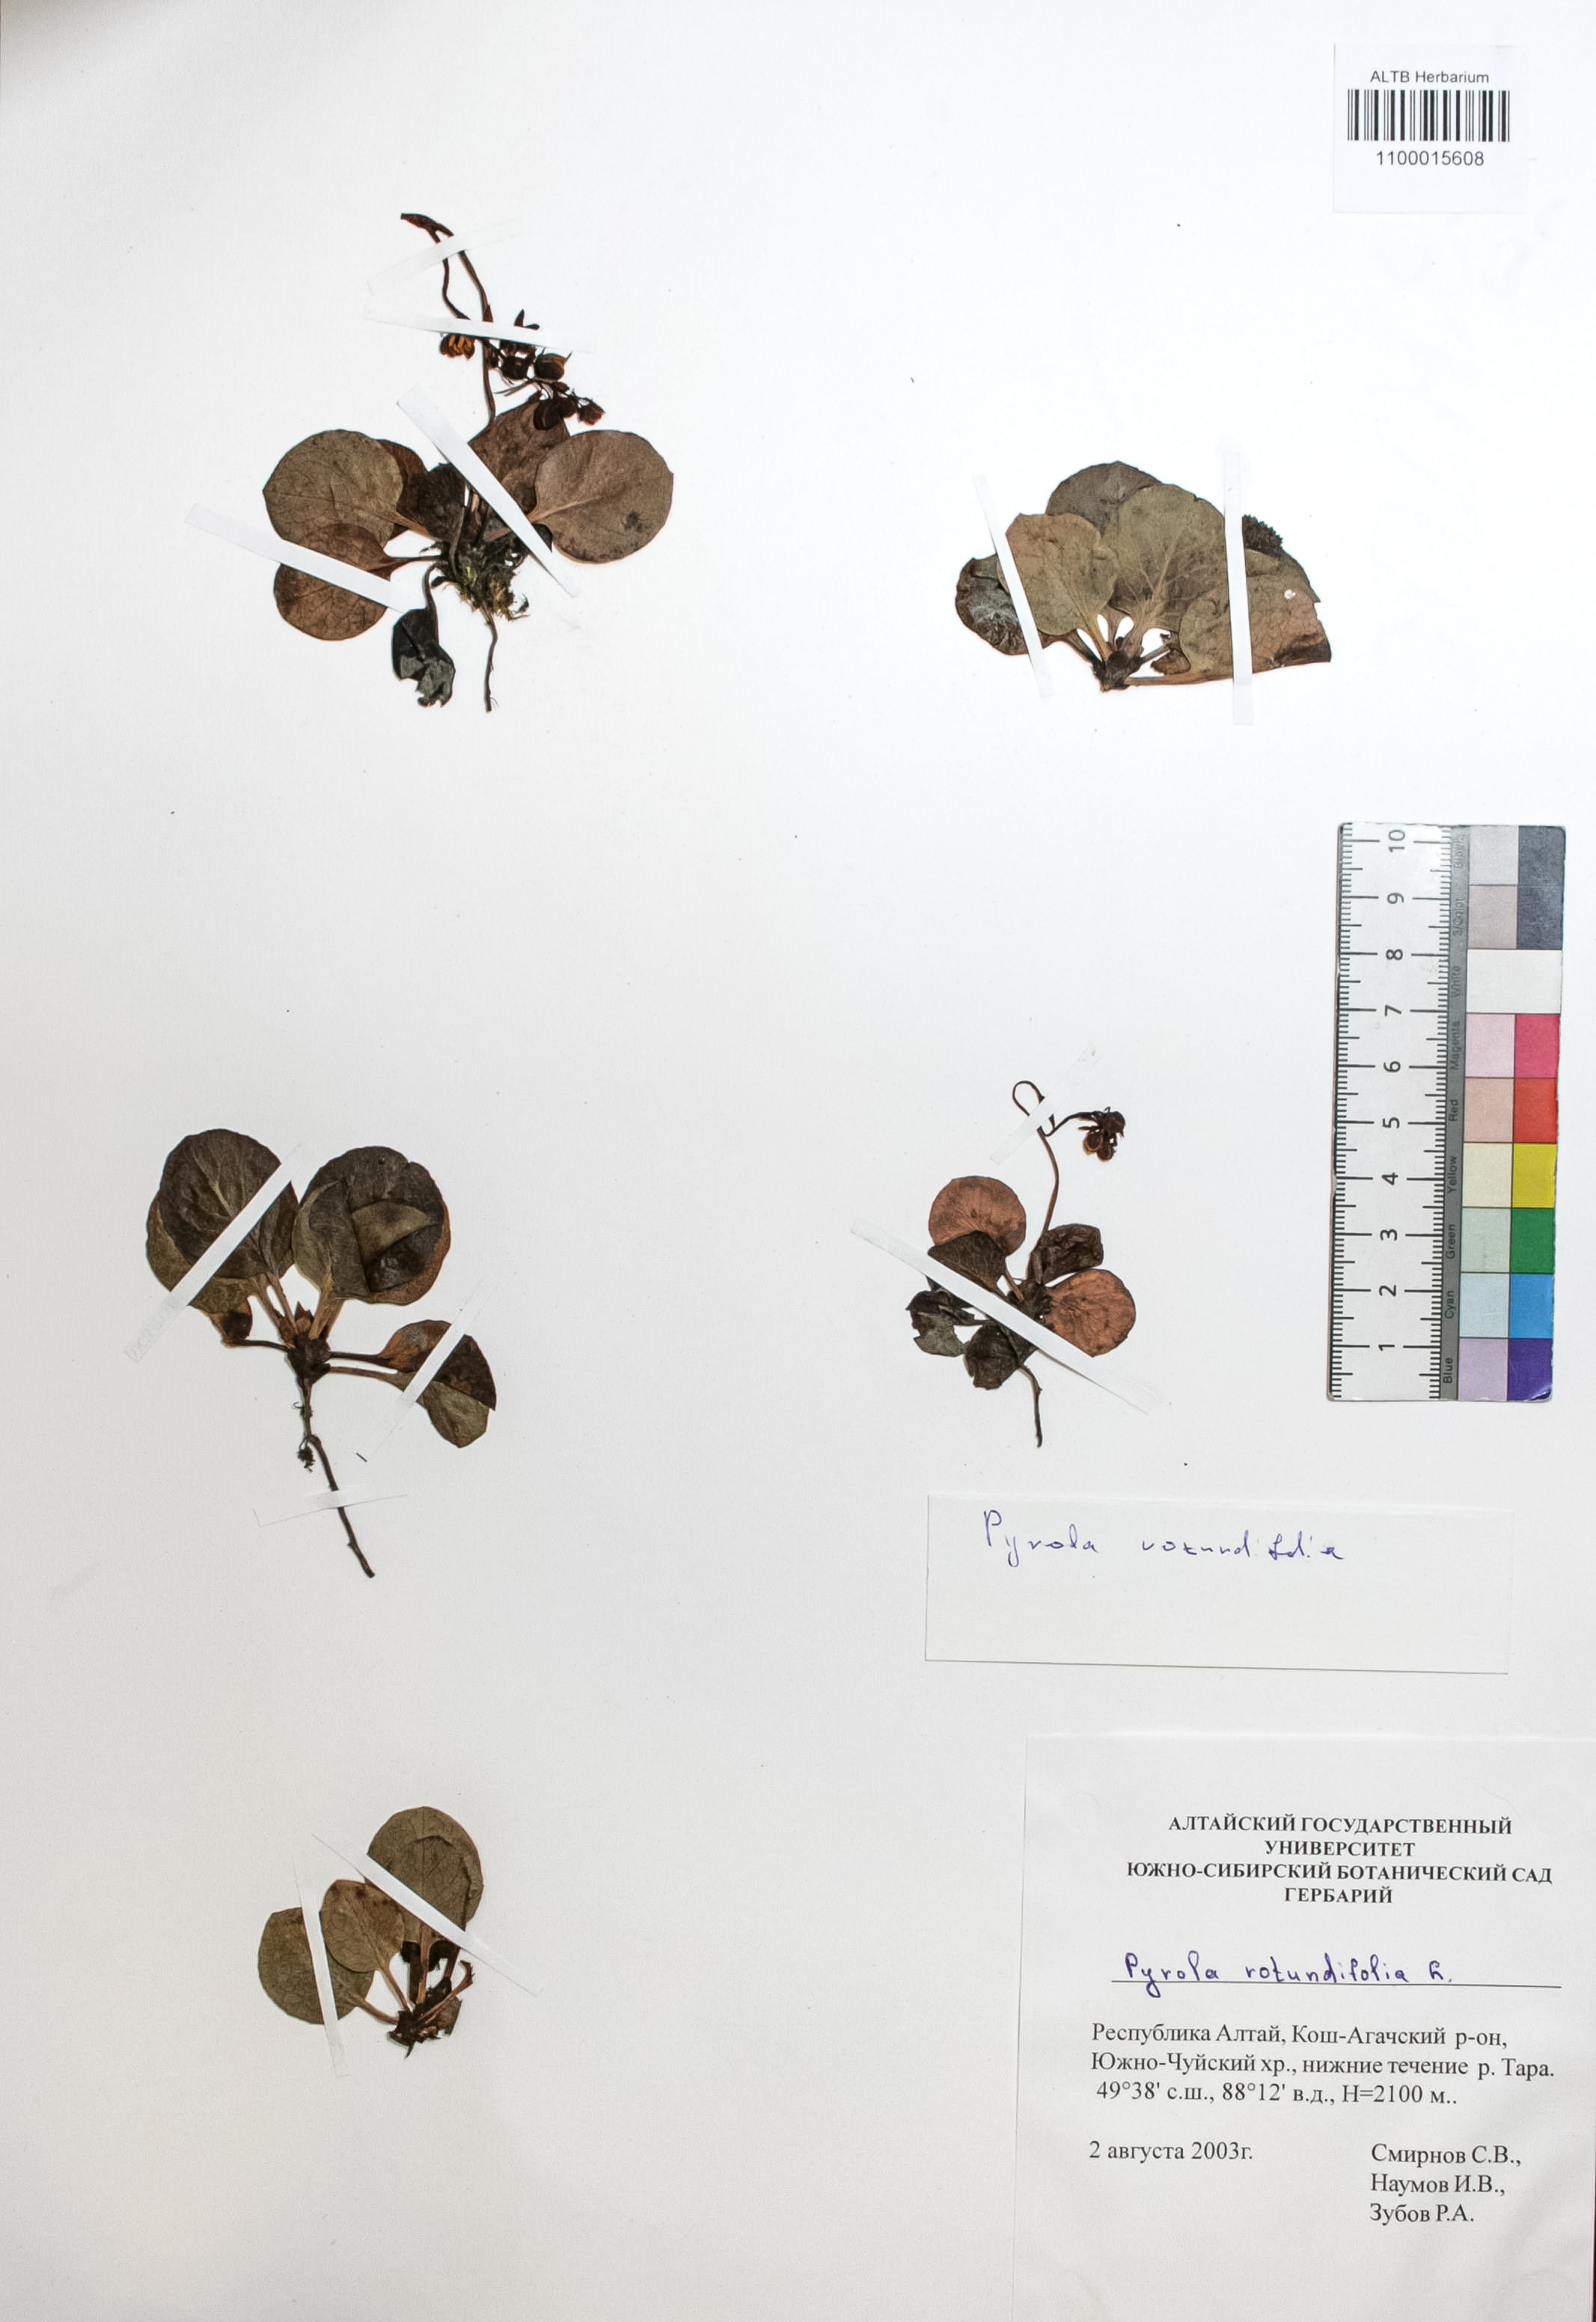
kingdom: Plantae
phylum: Tracheophyta
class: Magnoliopsida
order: Ericales
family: Ericaceae
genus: Pyrola
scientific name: Pyrola rotundifolia
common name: Round-leaved wintergreen
